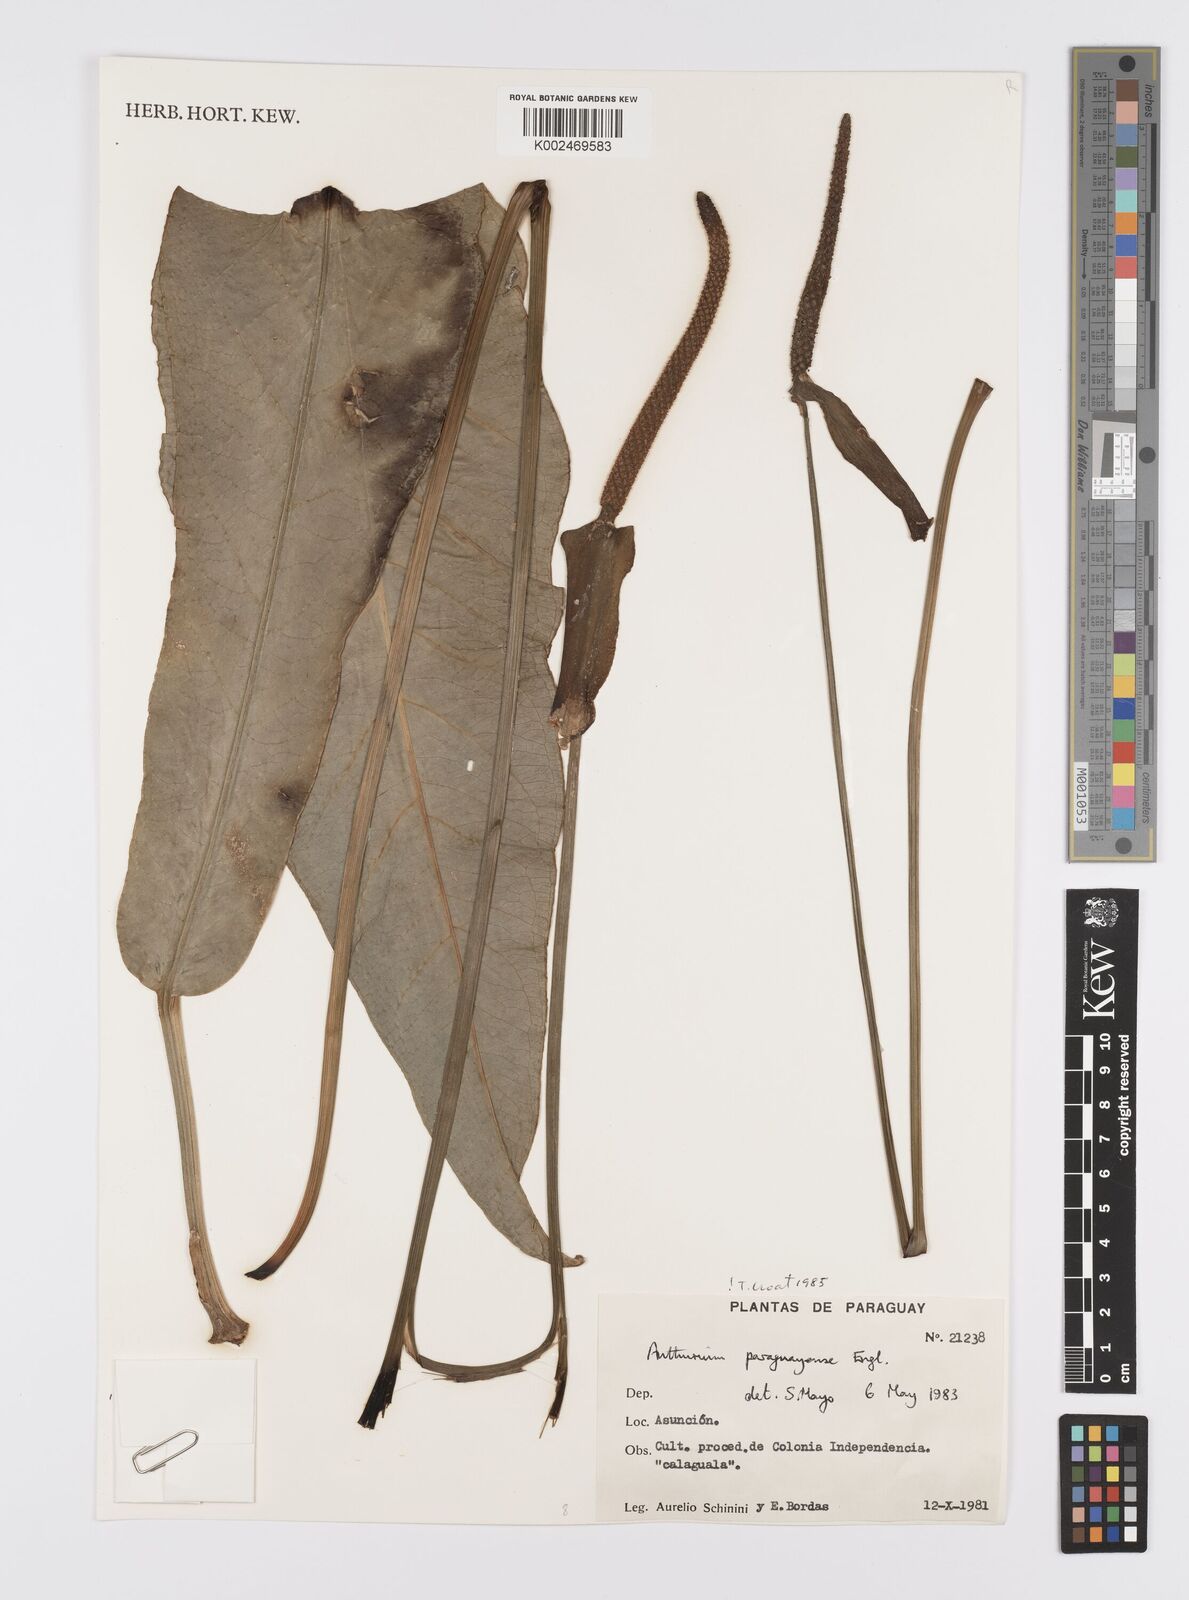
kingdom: Plantae
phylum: Tracheophyta
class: Liliopsida
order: Alismatales
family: Araceae
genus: Anthurium
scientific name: Anthurium paraguayense
